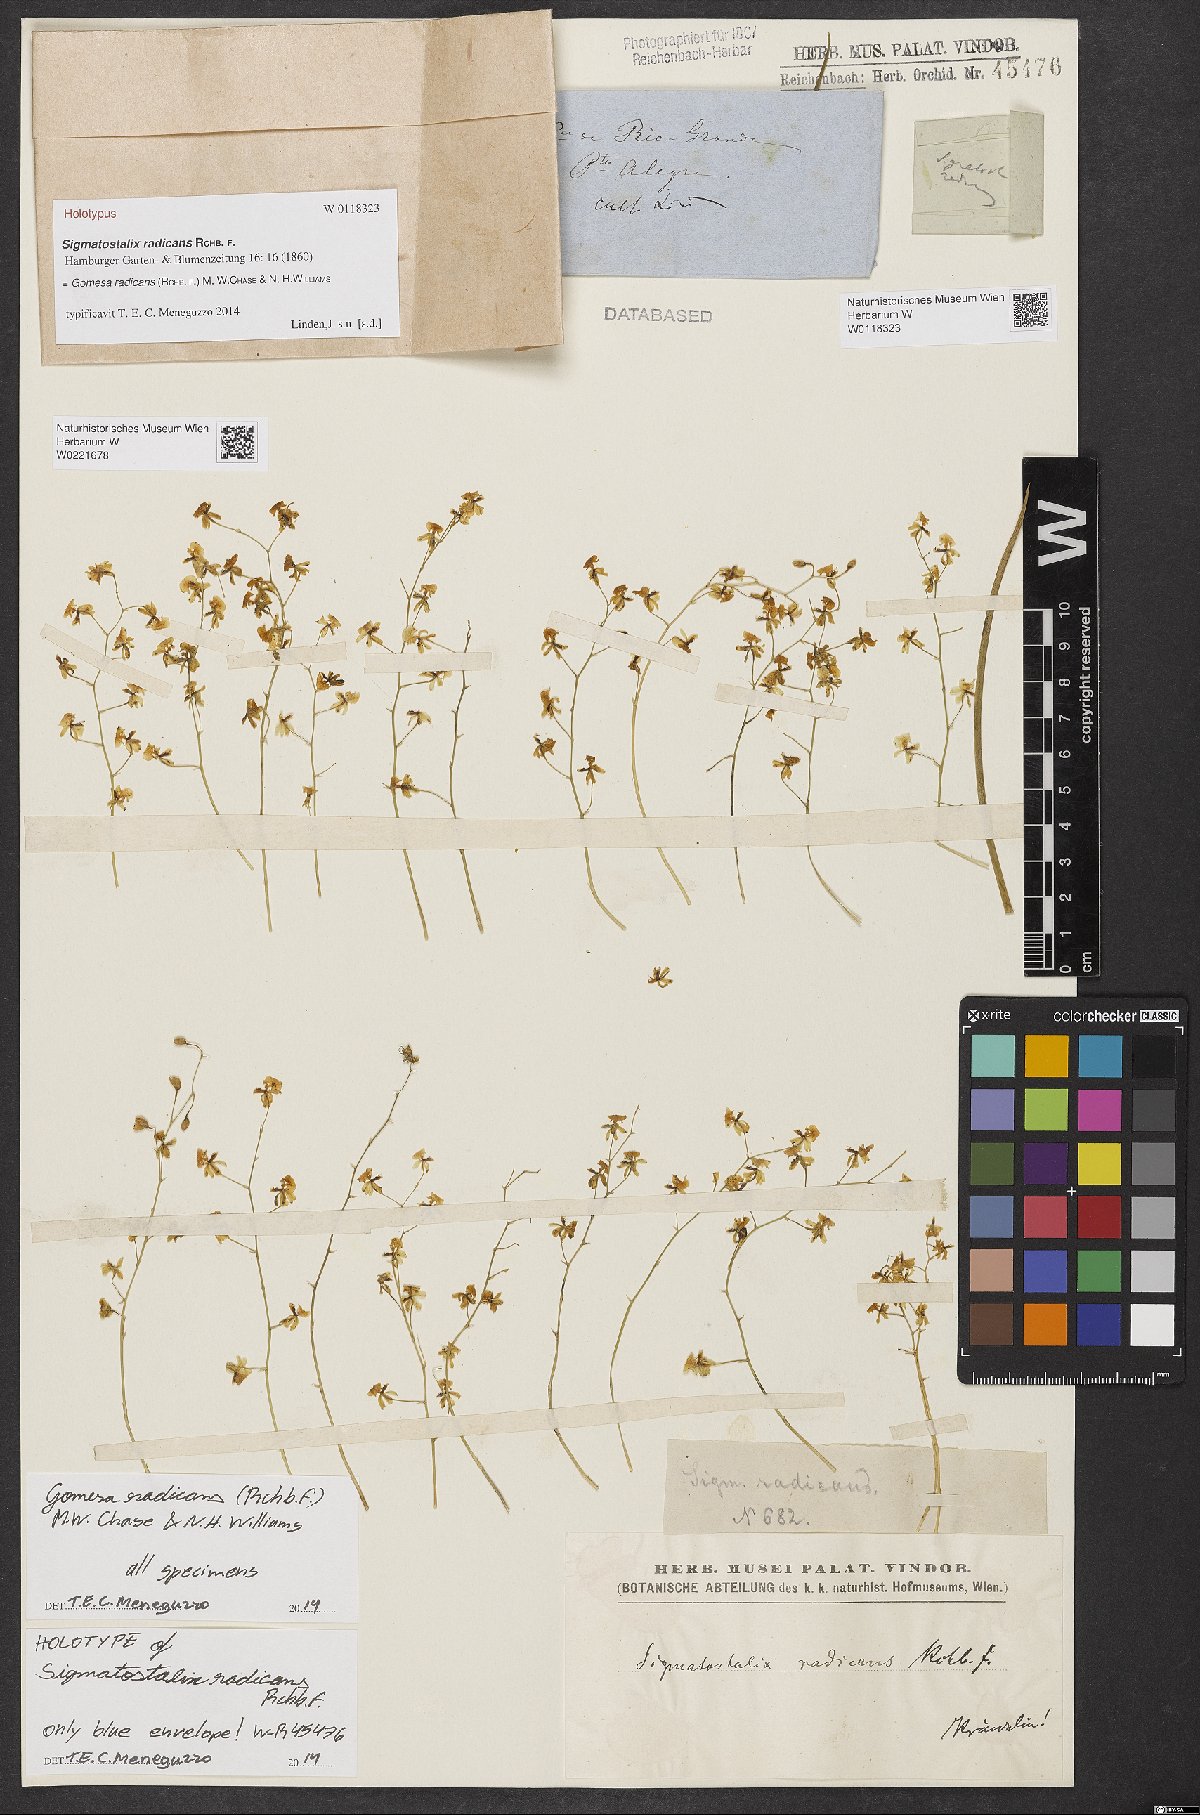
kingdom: Plantae
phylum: Tracheophyta
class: Liliopsida
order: Asparagales
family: Orchidaceae
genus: Gomesa
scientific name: Gomesa radicans
